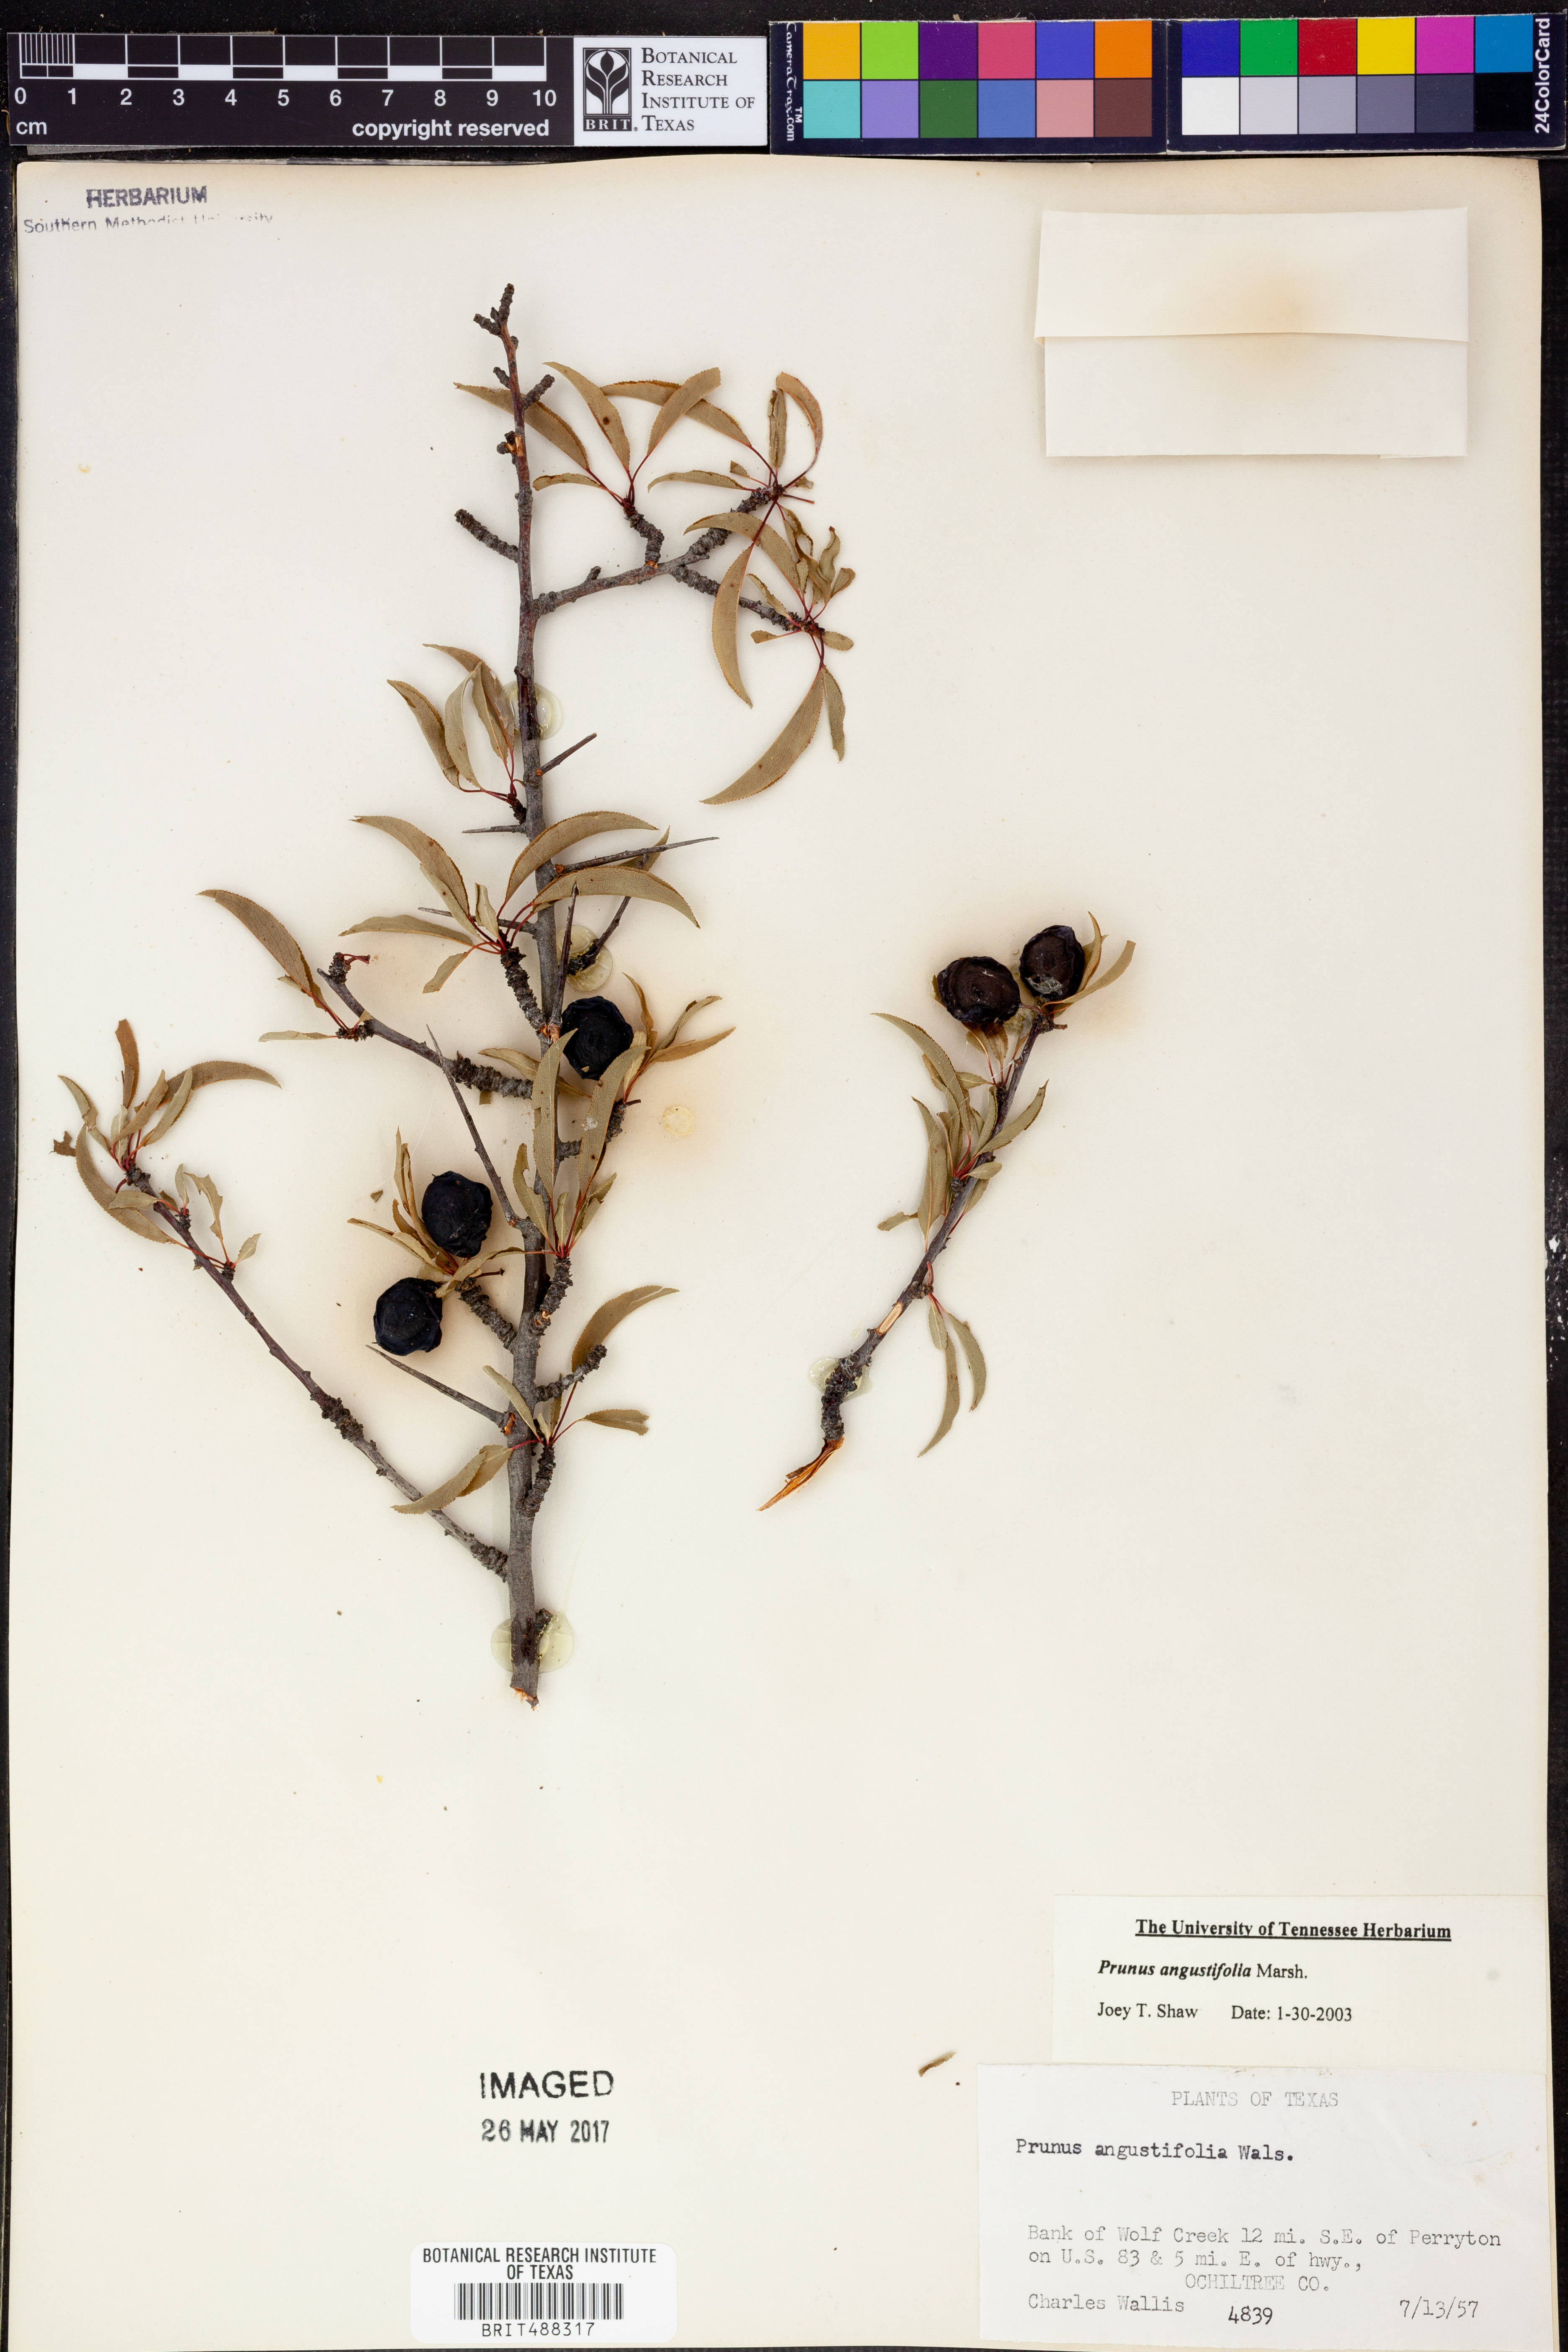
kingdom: Plantae
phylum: Tracheophyta
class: Magnoliopsida
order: Rosales
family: Rosaceae
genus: Prunus
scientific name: Prunus angustifolia
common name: Cherokee plum
